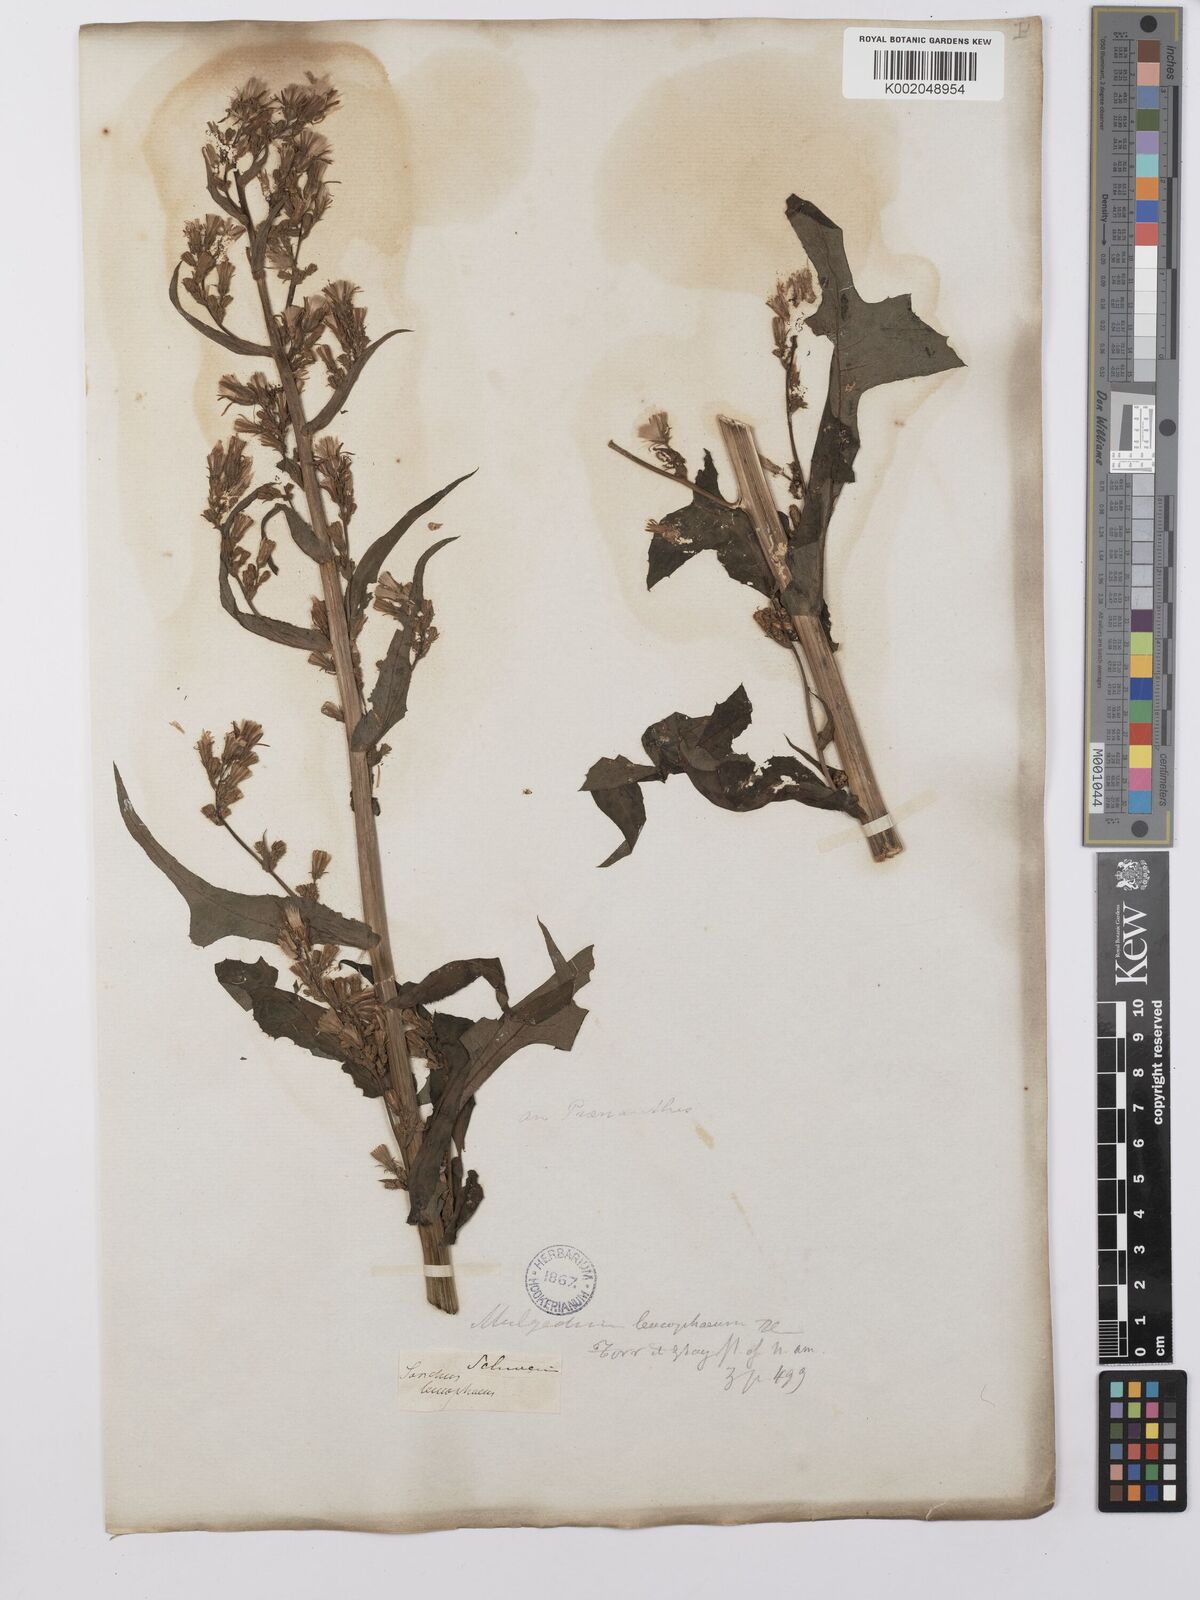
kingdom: Plantae
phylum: Tracheophyta
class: Magnoliopsida
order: Asterales
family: Asteraceae
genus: Lactuca
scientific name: Lactuca
